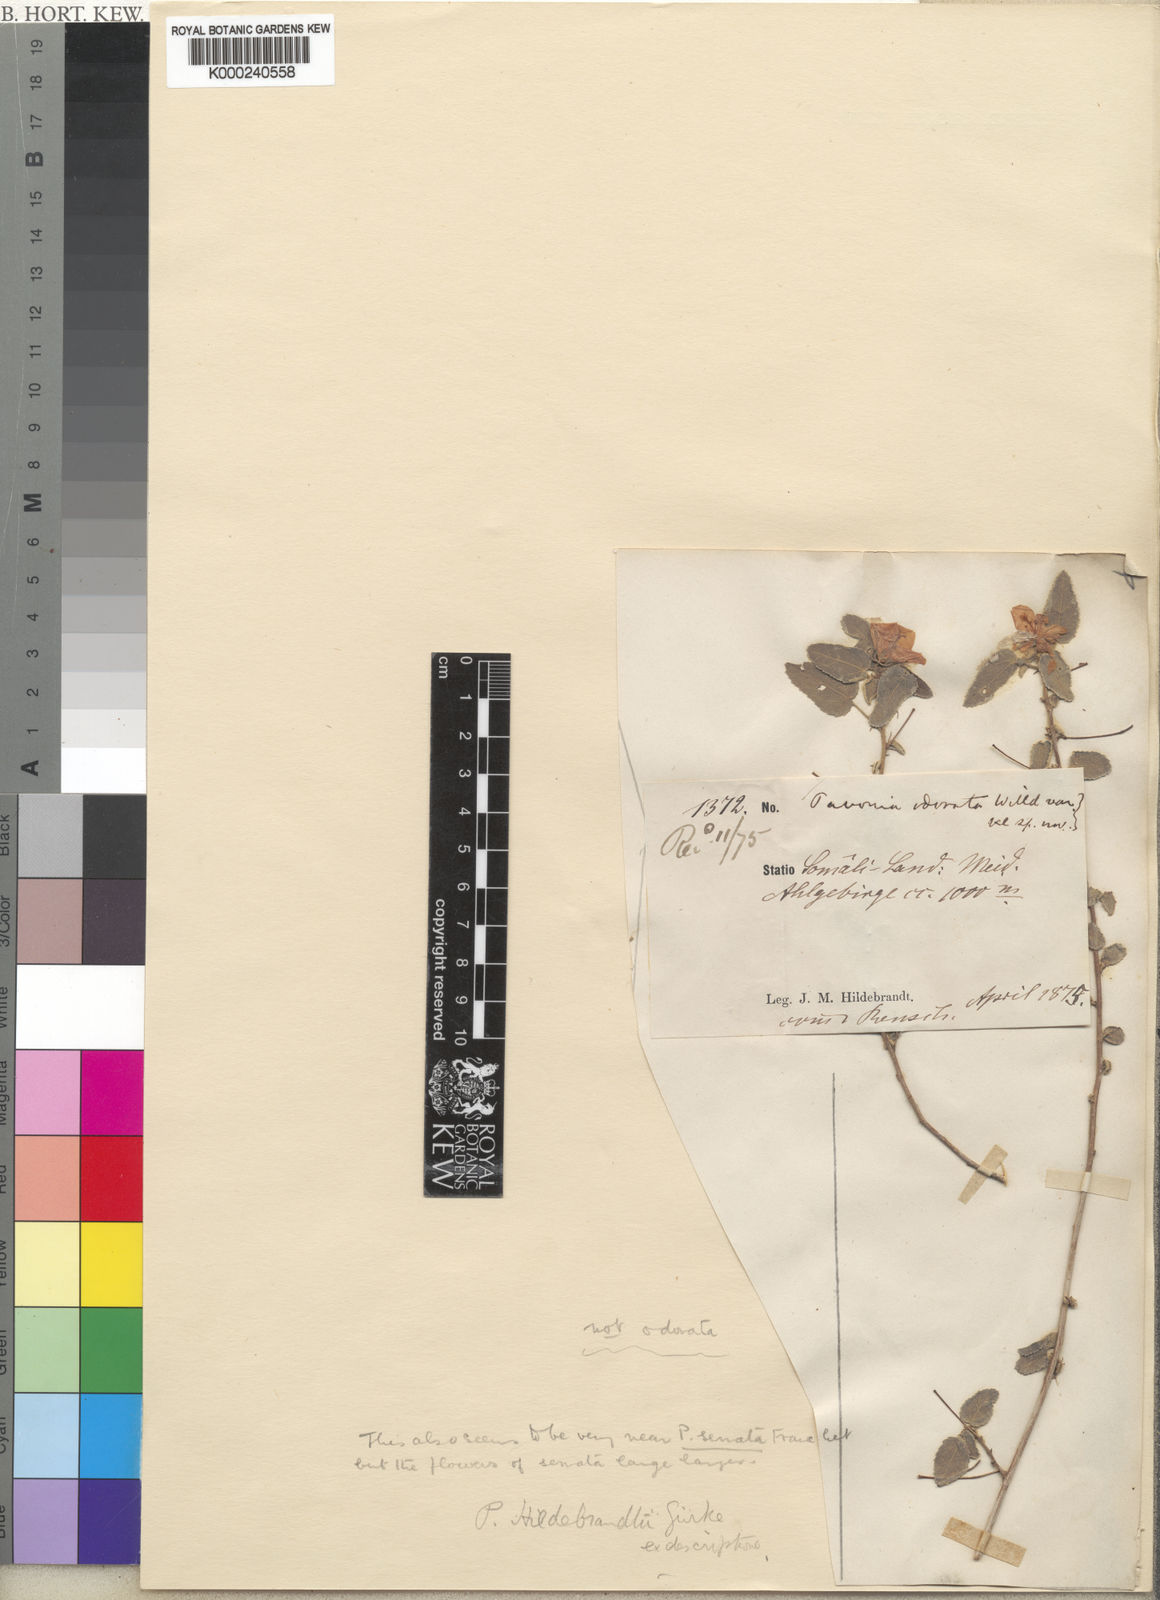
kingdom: Plantae
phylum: Tracheophyta
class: Magnoliopsida
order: Malvales
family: Malvaceae
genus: Pavonia
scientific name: Pavonia
